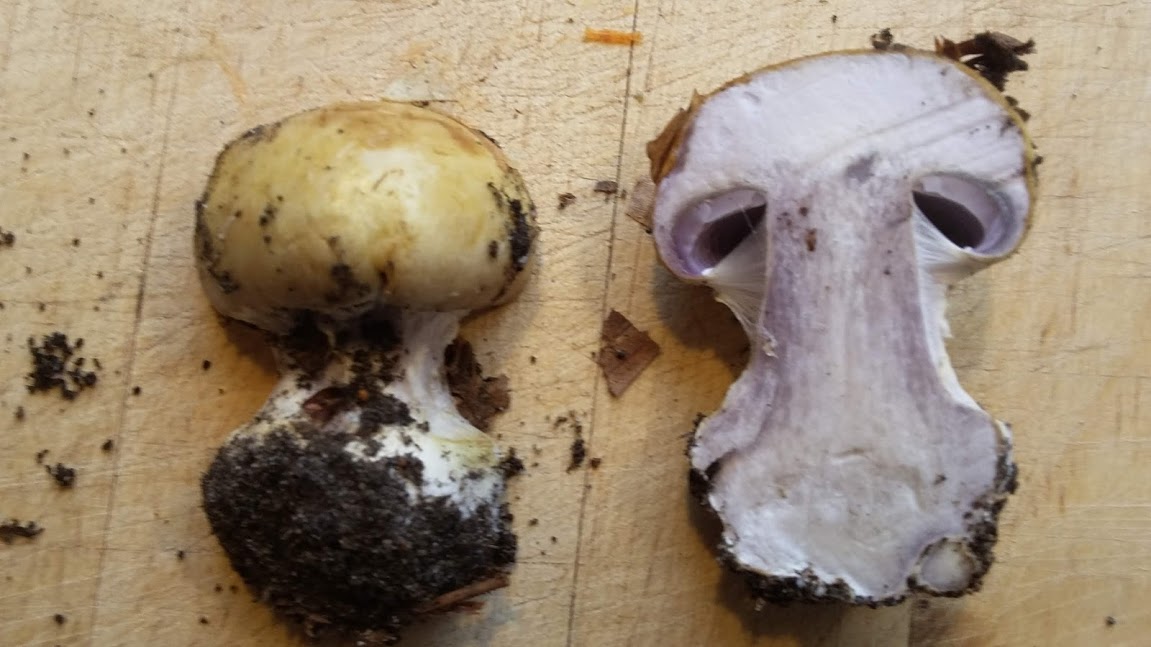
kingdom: Fungi
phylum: Basidiomycota
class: Agaricomycetes
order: Agaricales
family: Cortinariaceae
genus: Cortinarius
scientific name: Cortinarius anserinus
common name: bøge-slørhat
